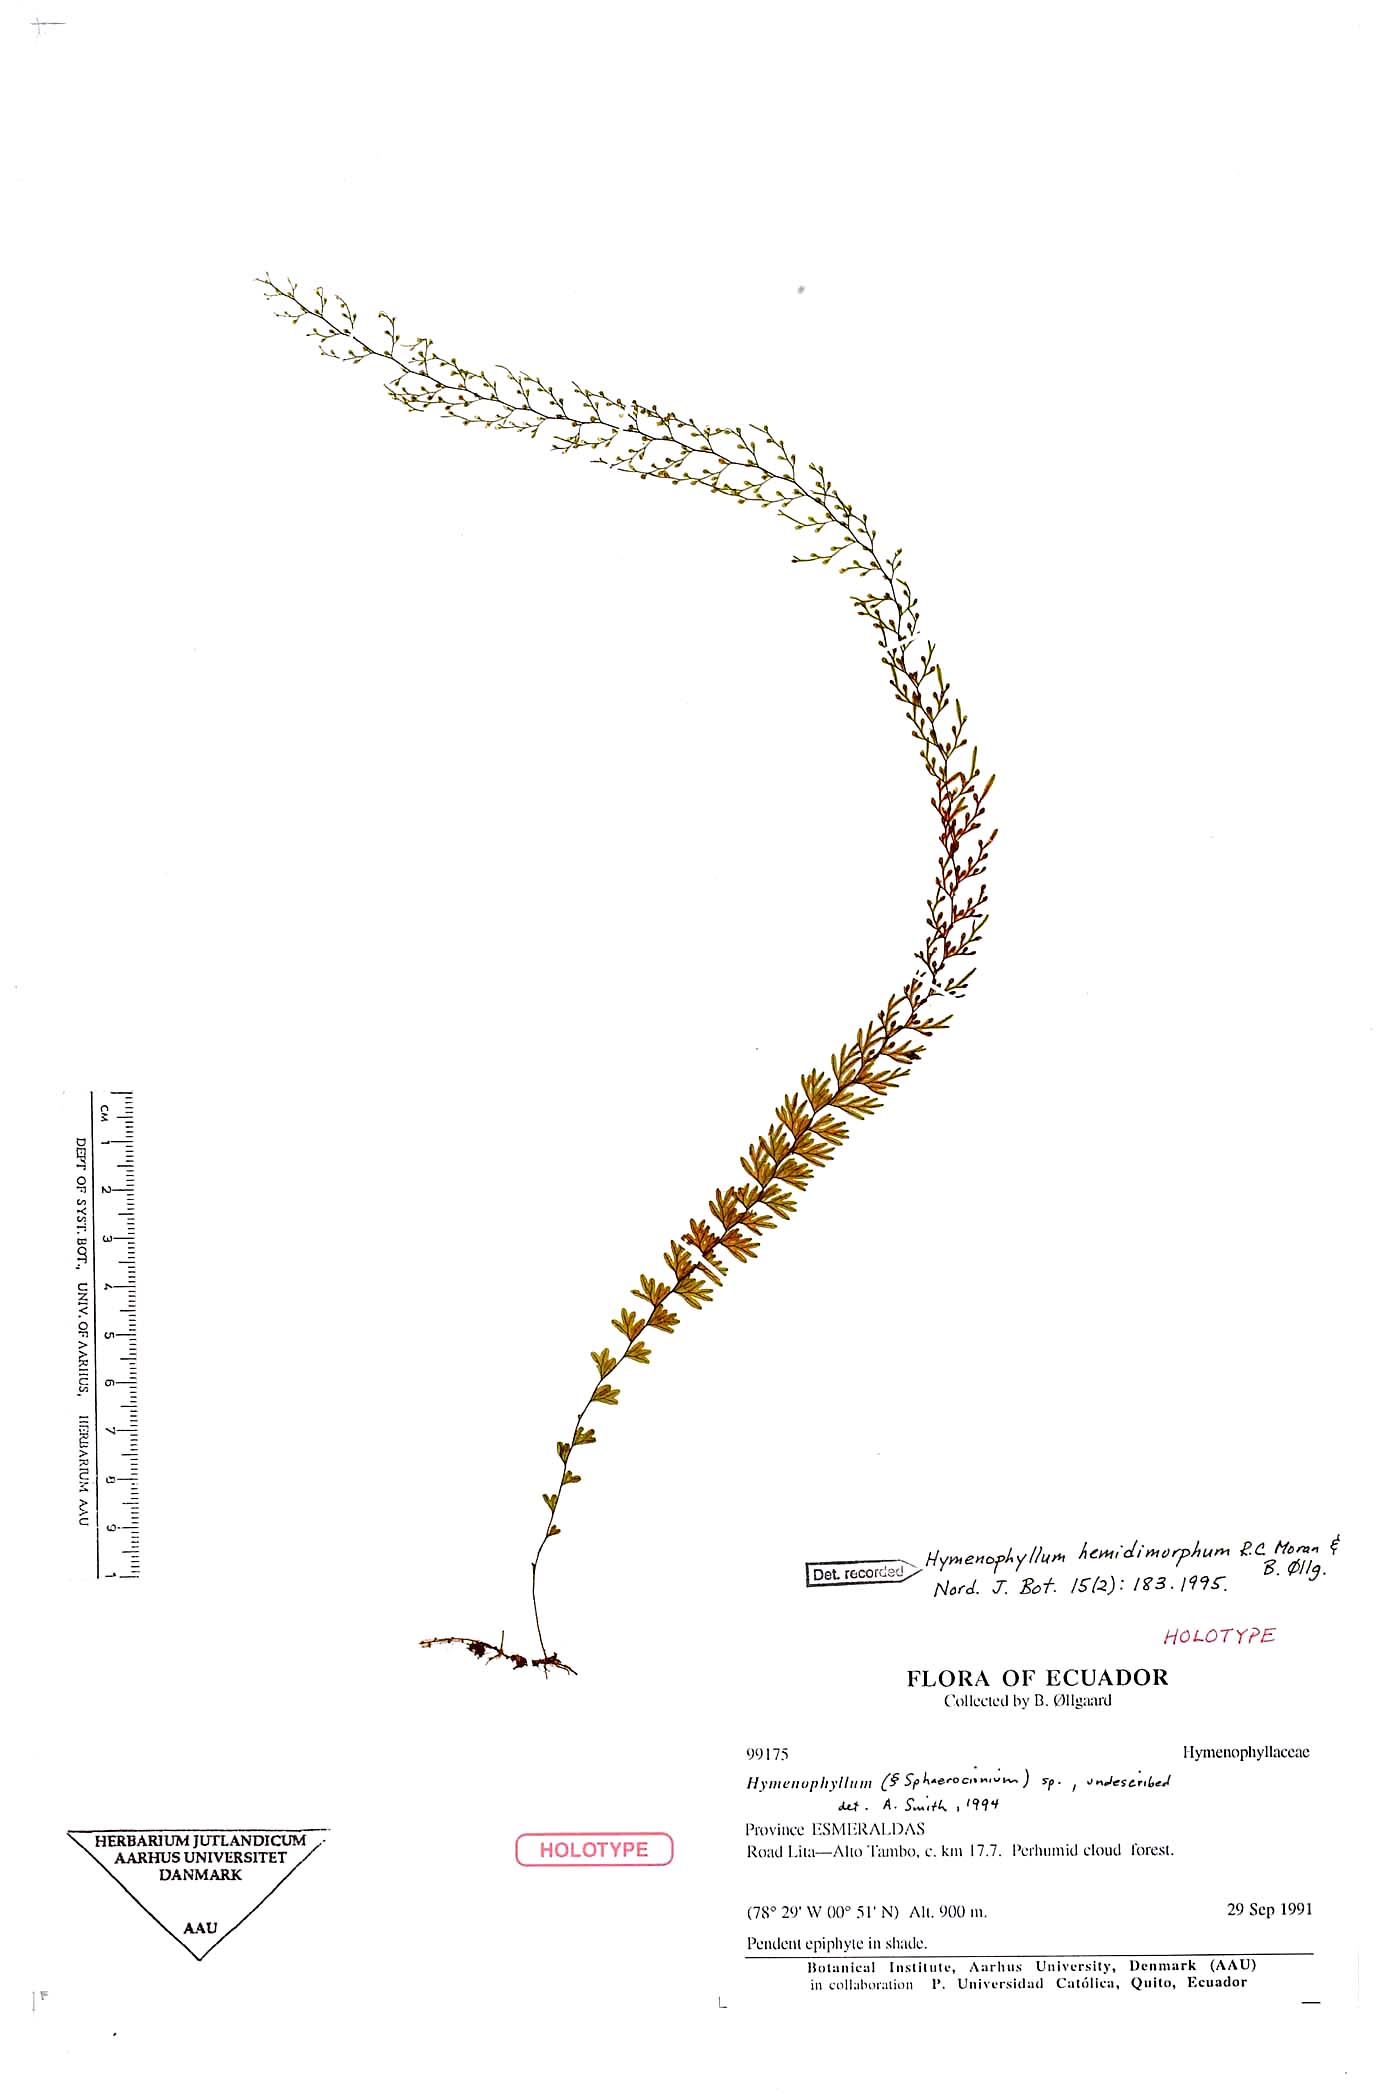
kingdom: Plantae
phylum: Tracheophyta
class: Polypodiopsida
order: Hymenophyllales
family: Hymenophyllaceae
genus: Hymenophyllum
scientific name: Hymenophyllum hemidimorphum
